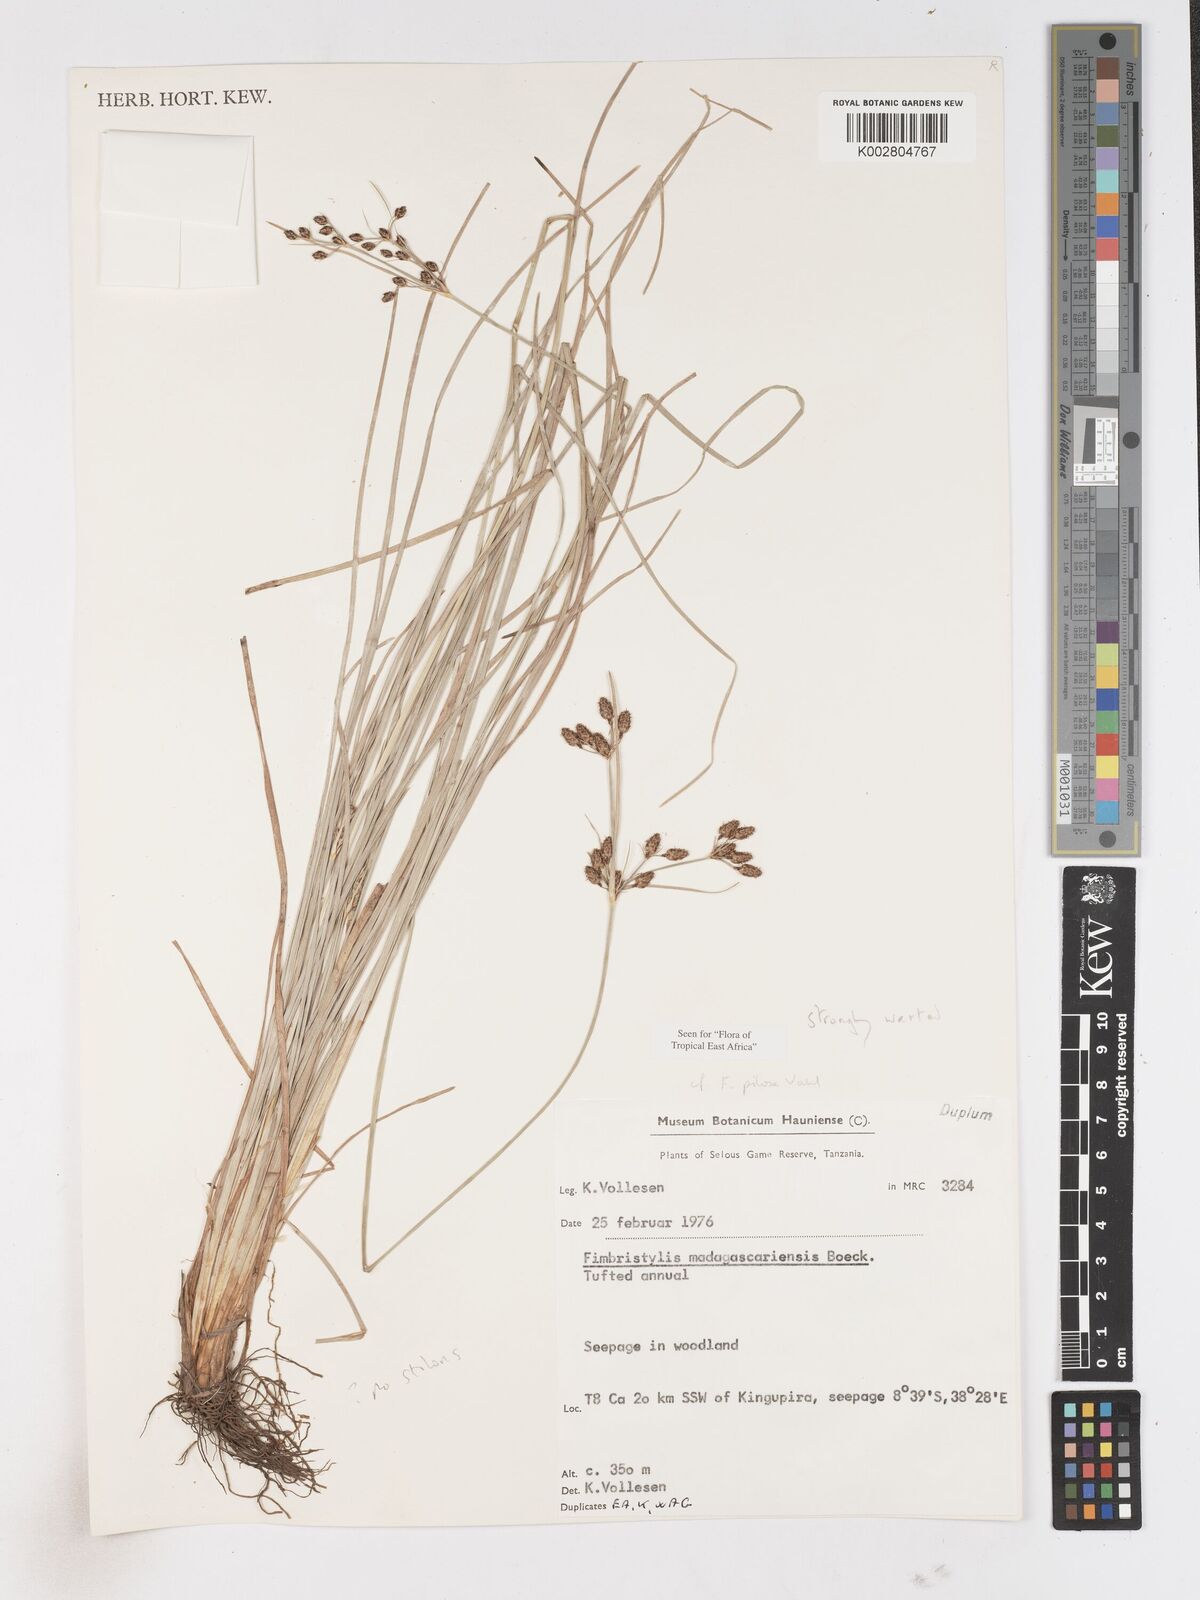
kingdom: Plantae
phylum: Tracheophyta
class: Liliopsida
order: Poales
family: Cyperaceae
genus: Fimbristylis
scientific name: Fimbristylis pilosa
